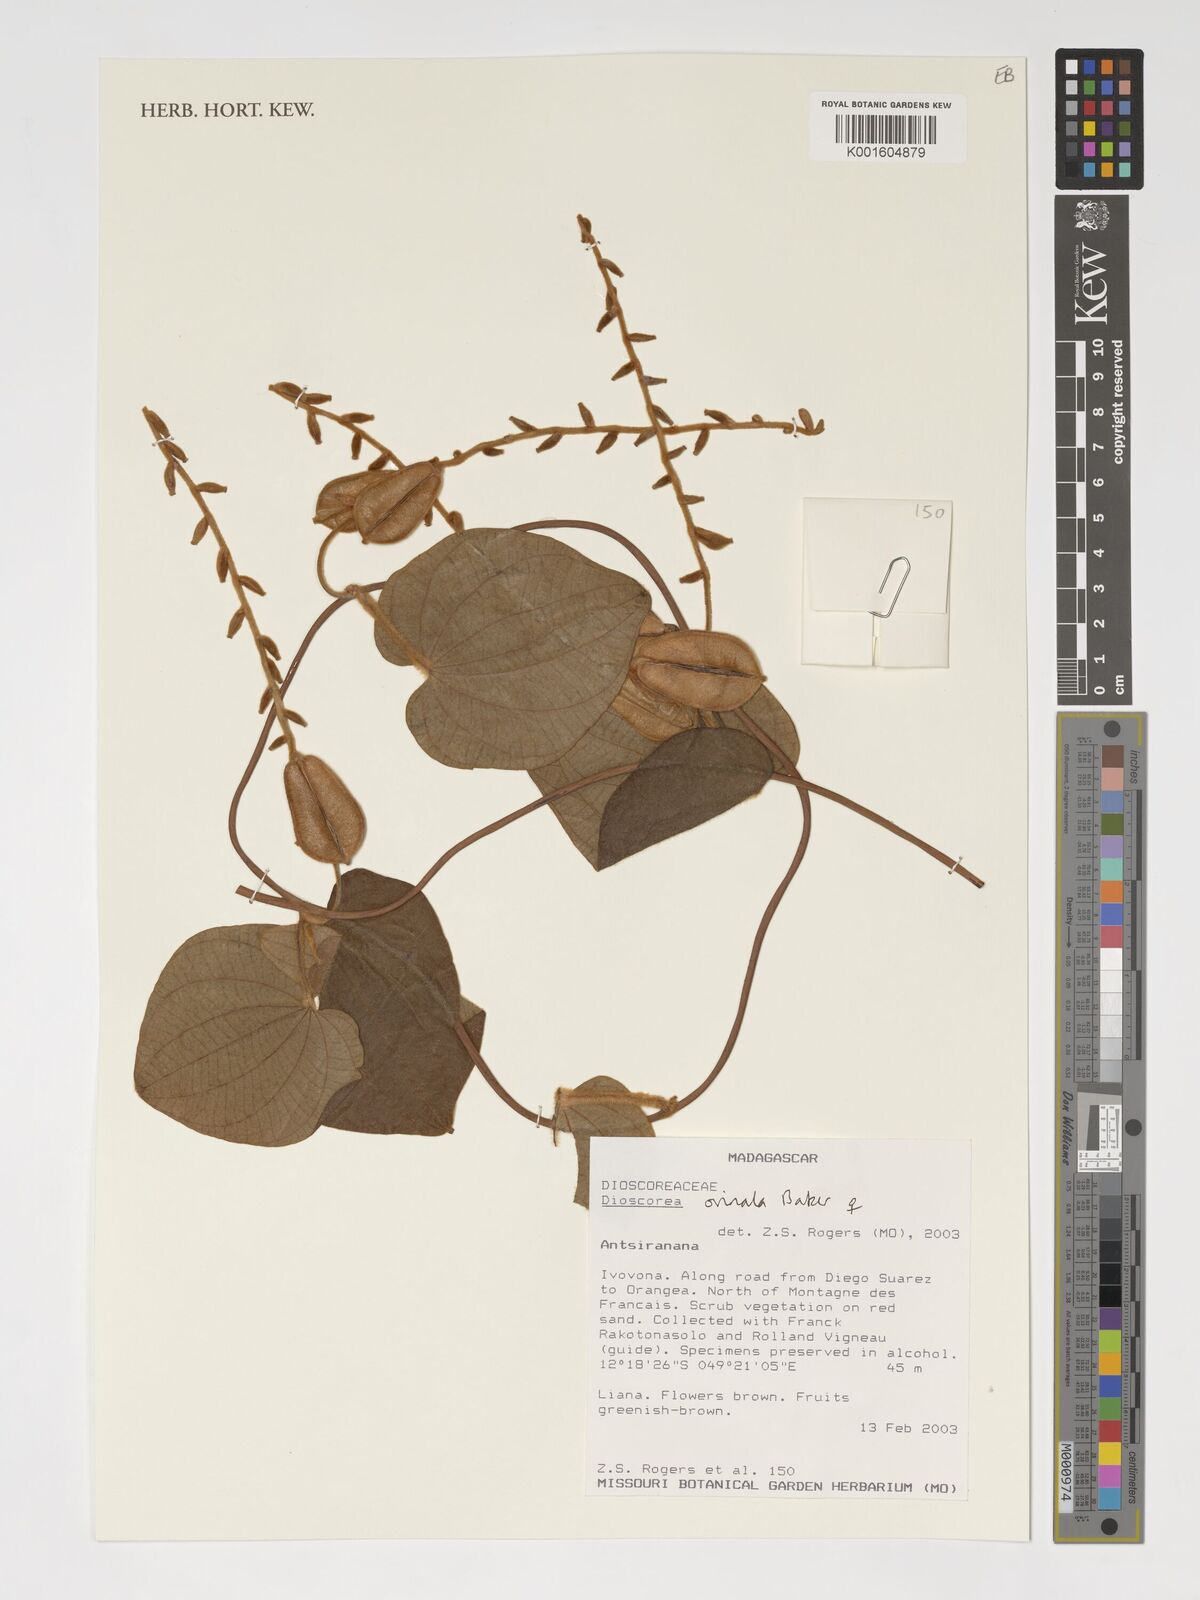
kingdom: Plantae
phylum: Tracheophyta
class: Liliopsida
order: Dioscoreales
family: Dioscoreaceae
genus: Dioscorea
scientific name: Dioscorea ovinala
